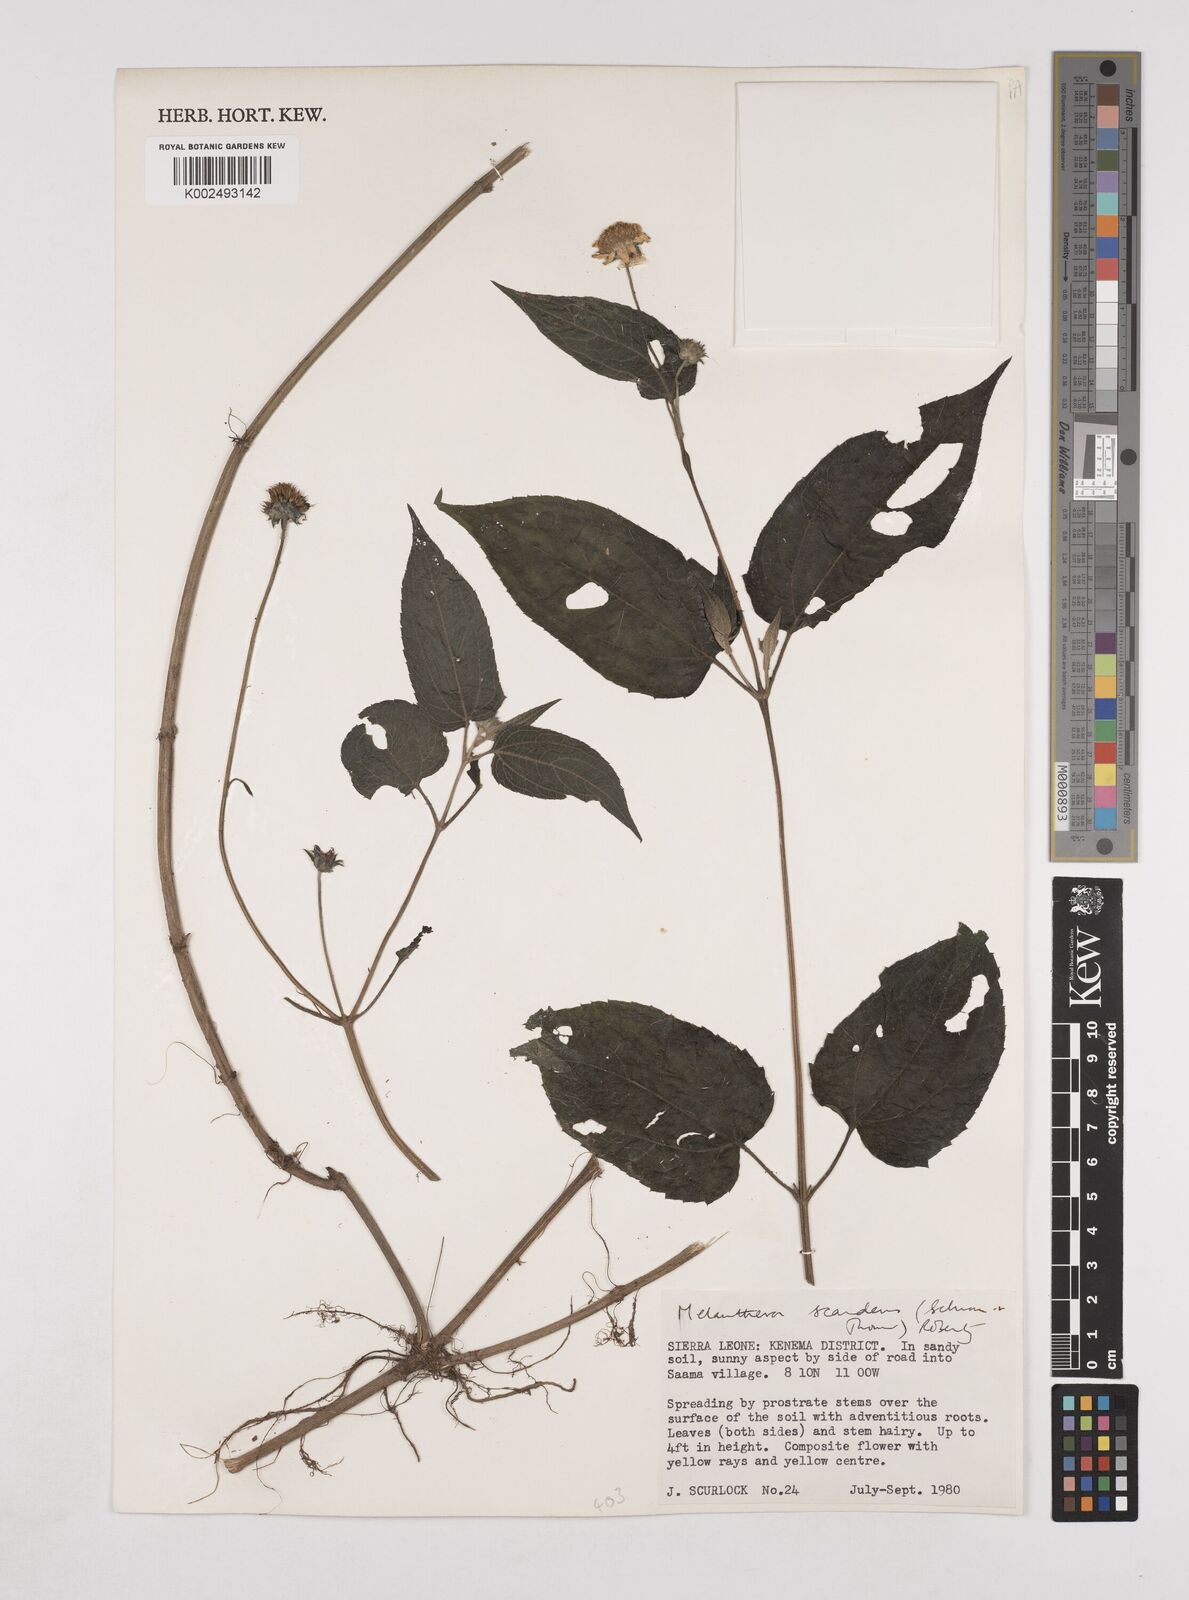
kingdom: Plantae
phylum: Tracheophyta
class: Magnoliopsida
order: Asterales
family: Asteraceae
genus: Lipotriche
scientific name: Lipotriche scandens
